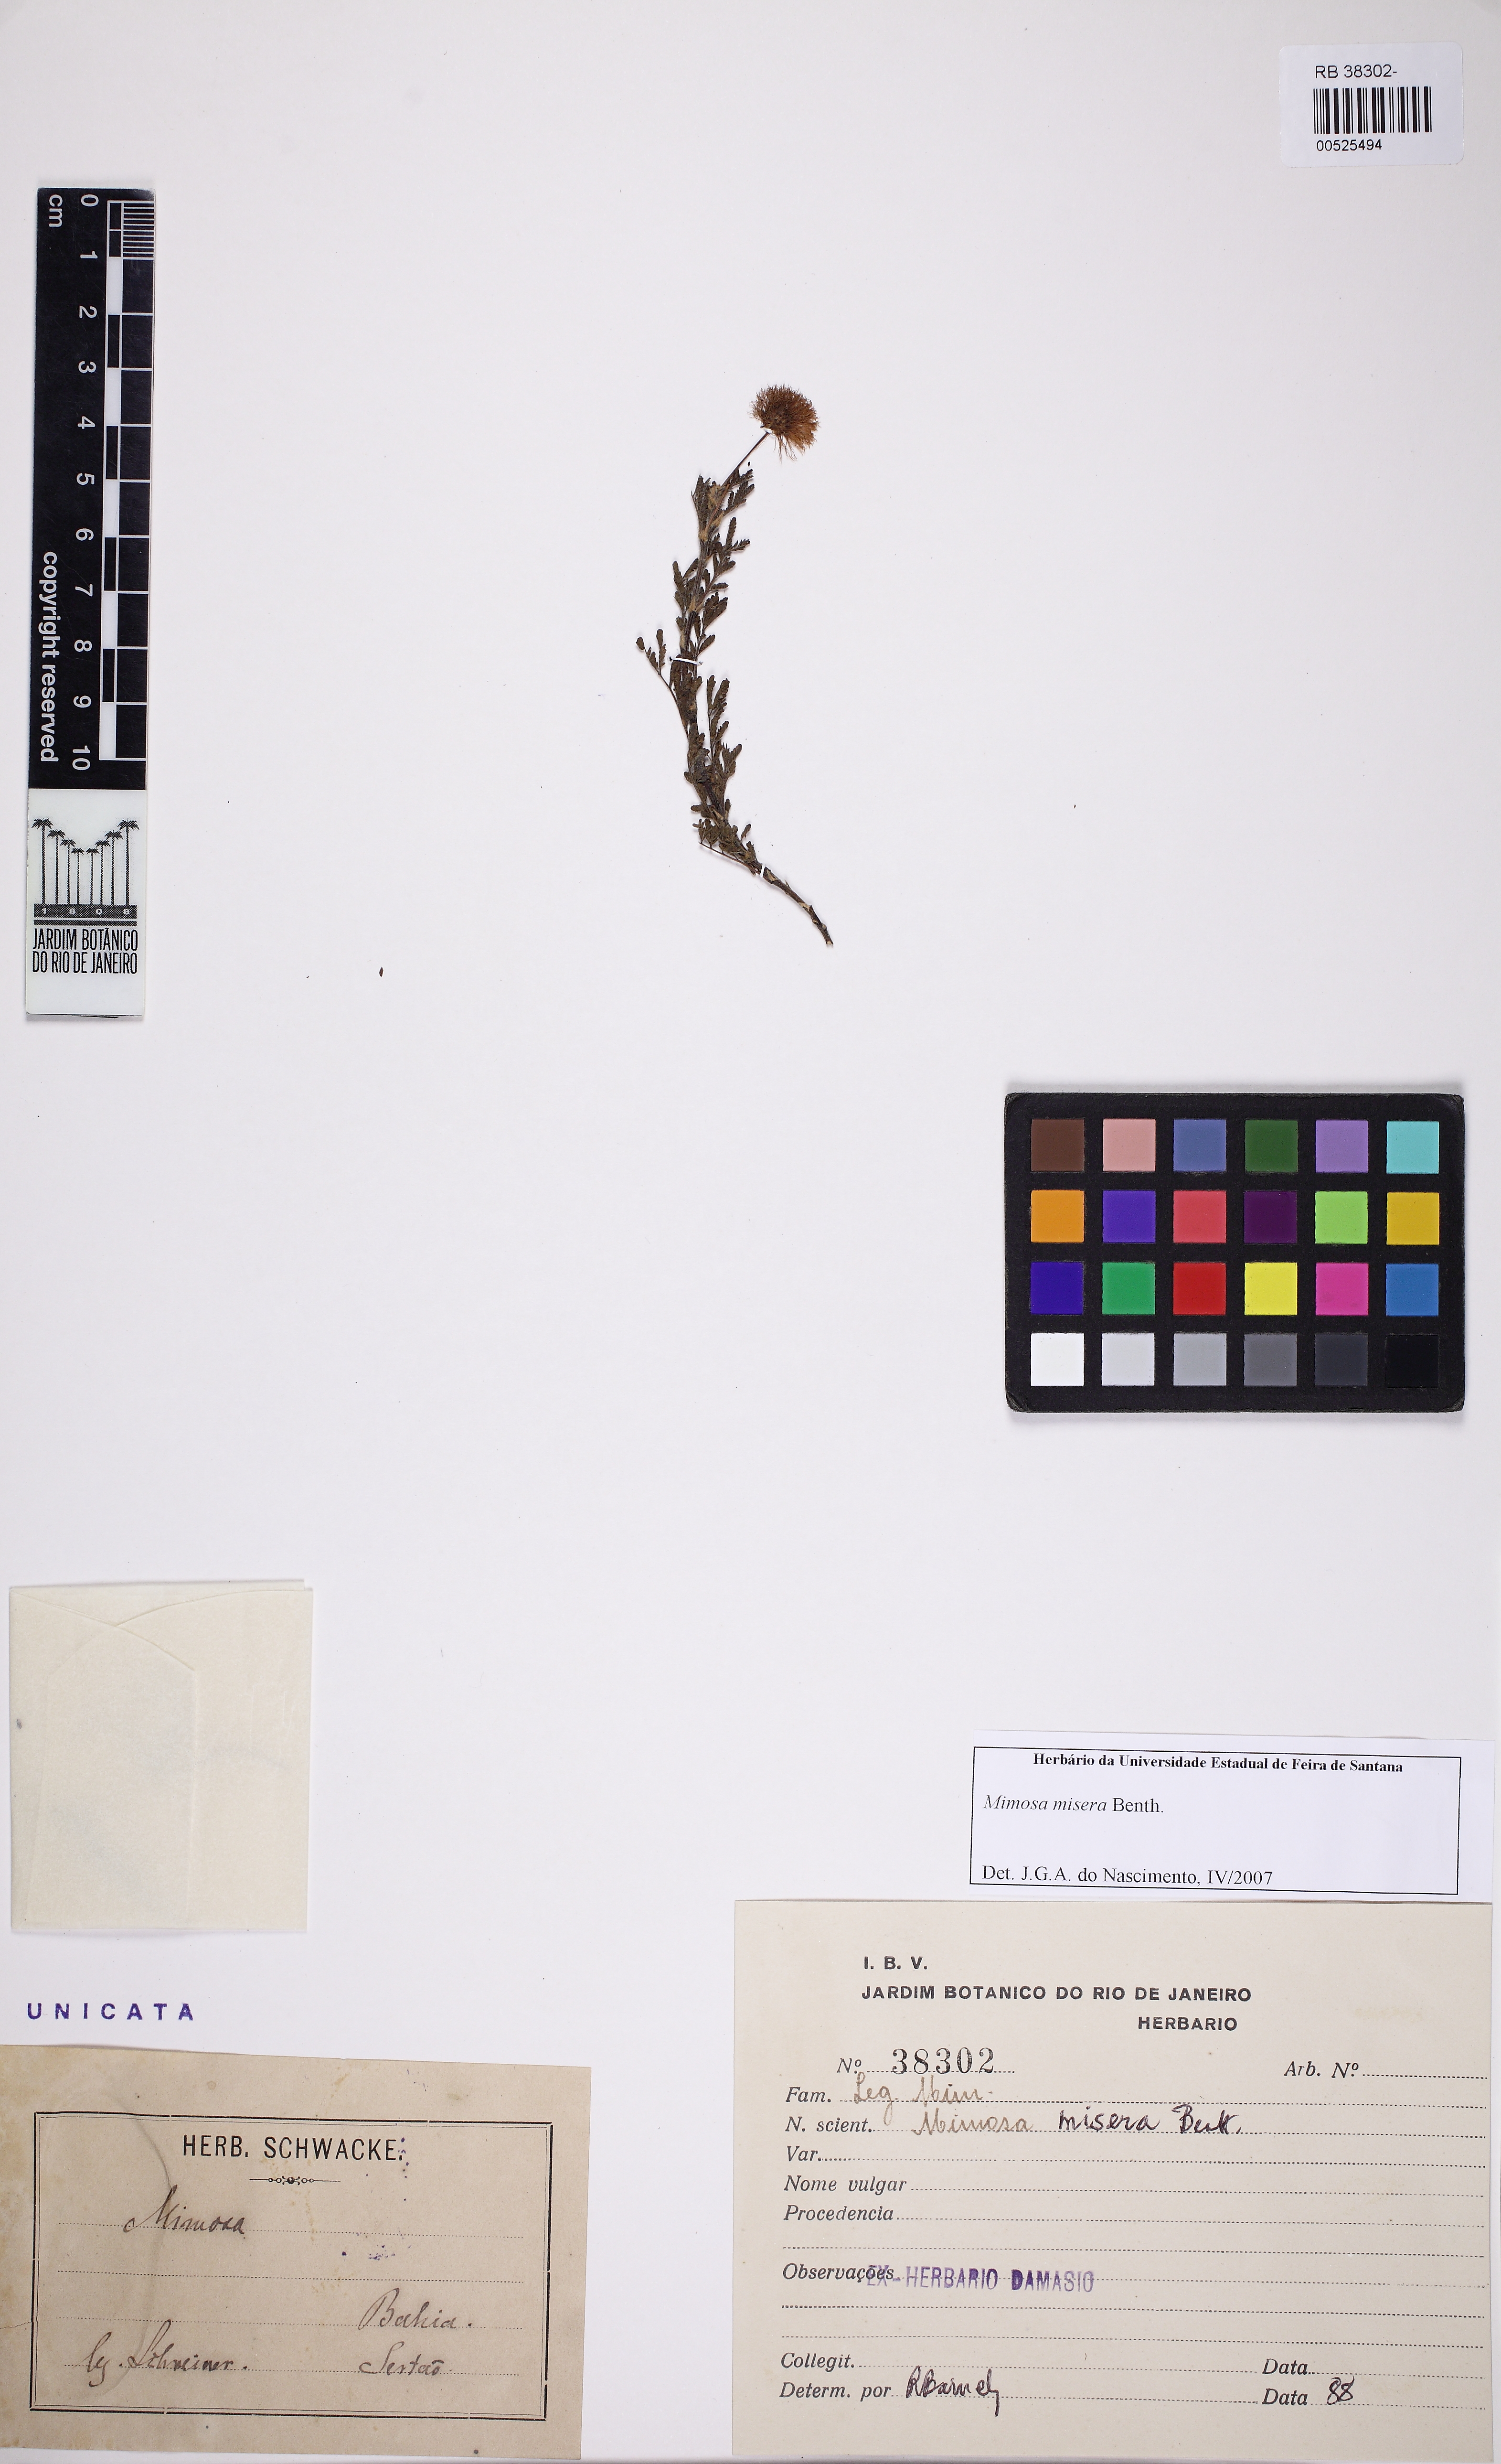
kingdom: Plantae
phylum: Tracheophyta
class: Magnoliopsida
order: Fabales
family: Fabaceae
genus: Mimosa
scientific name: Mimosa misera
